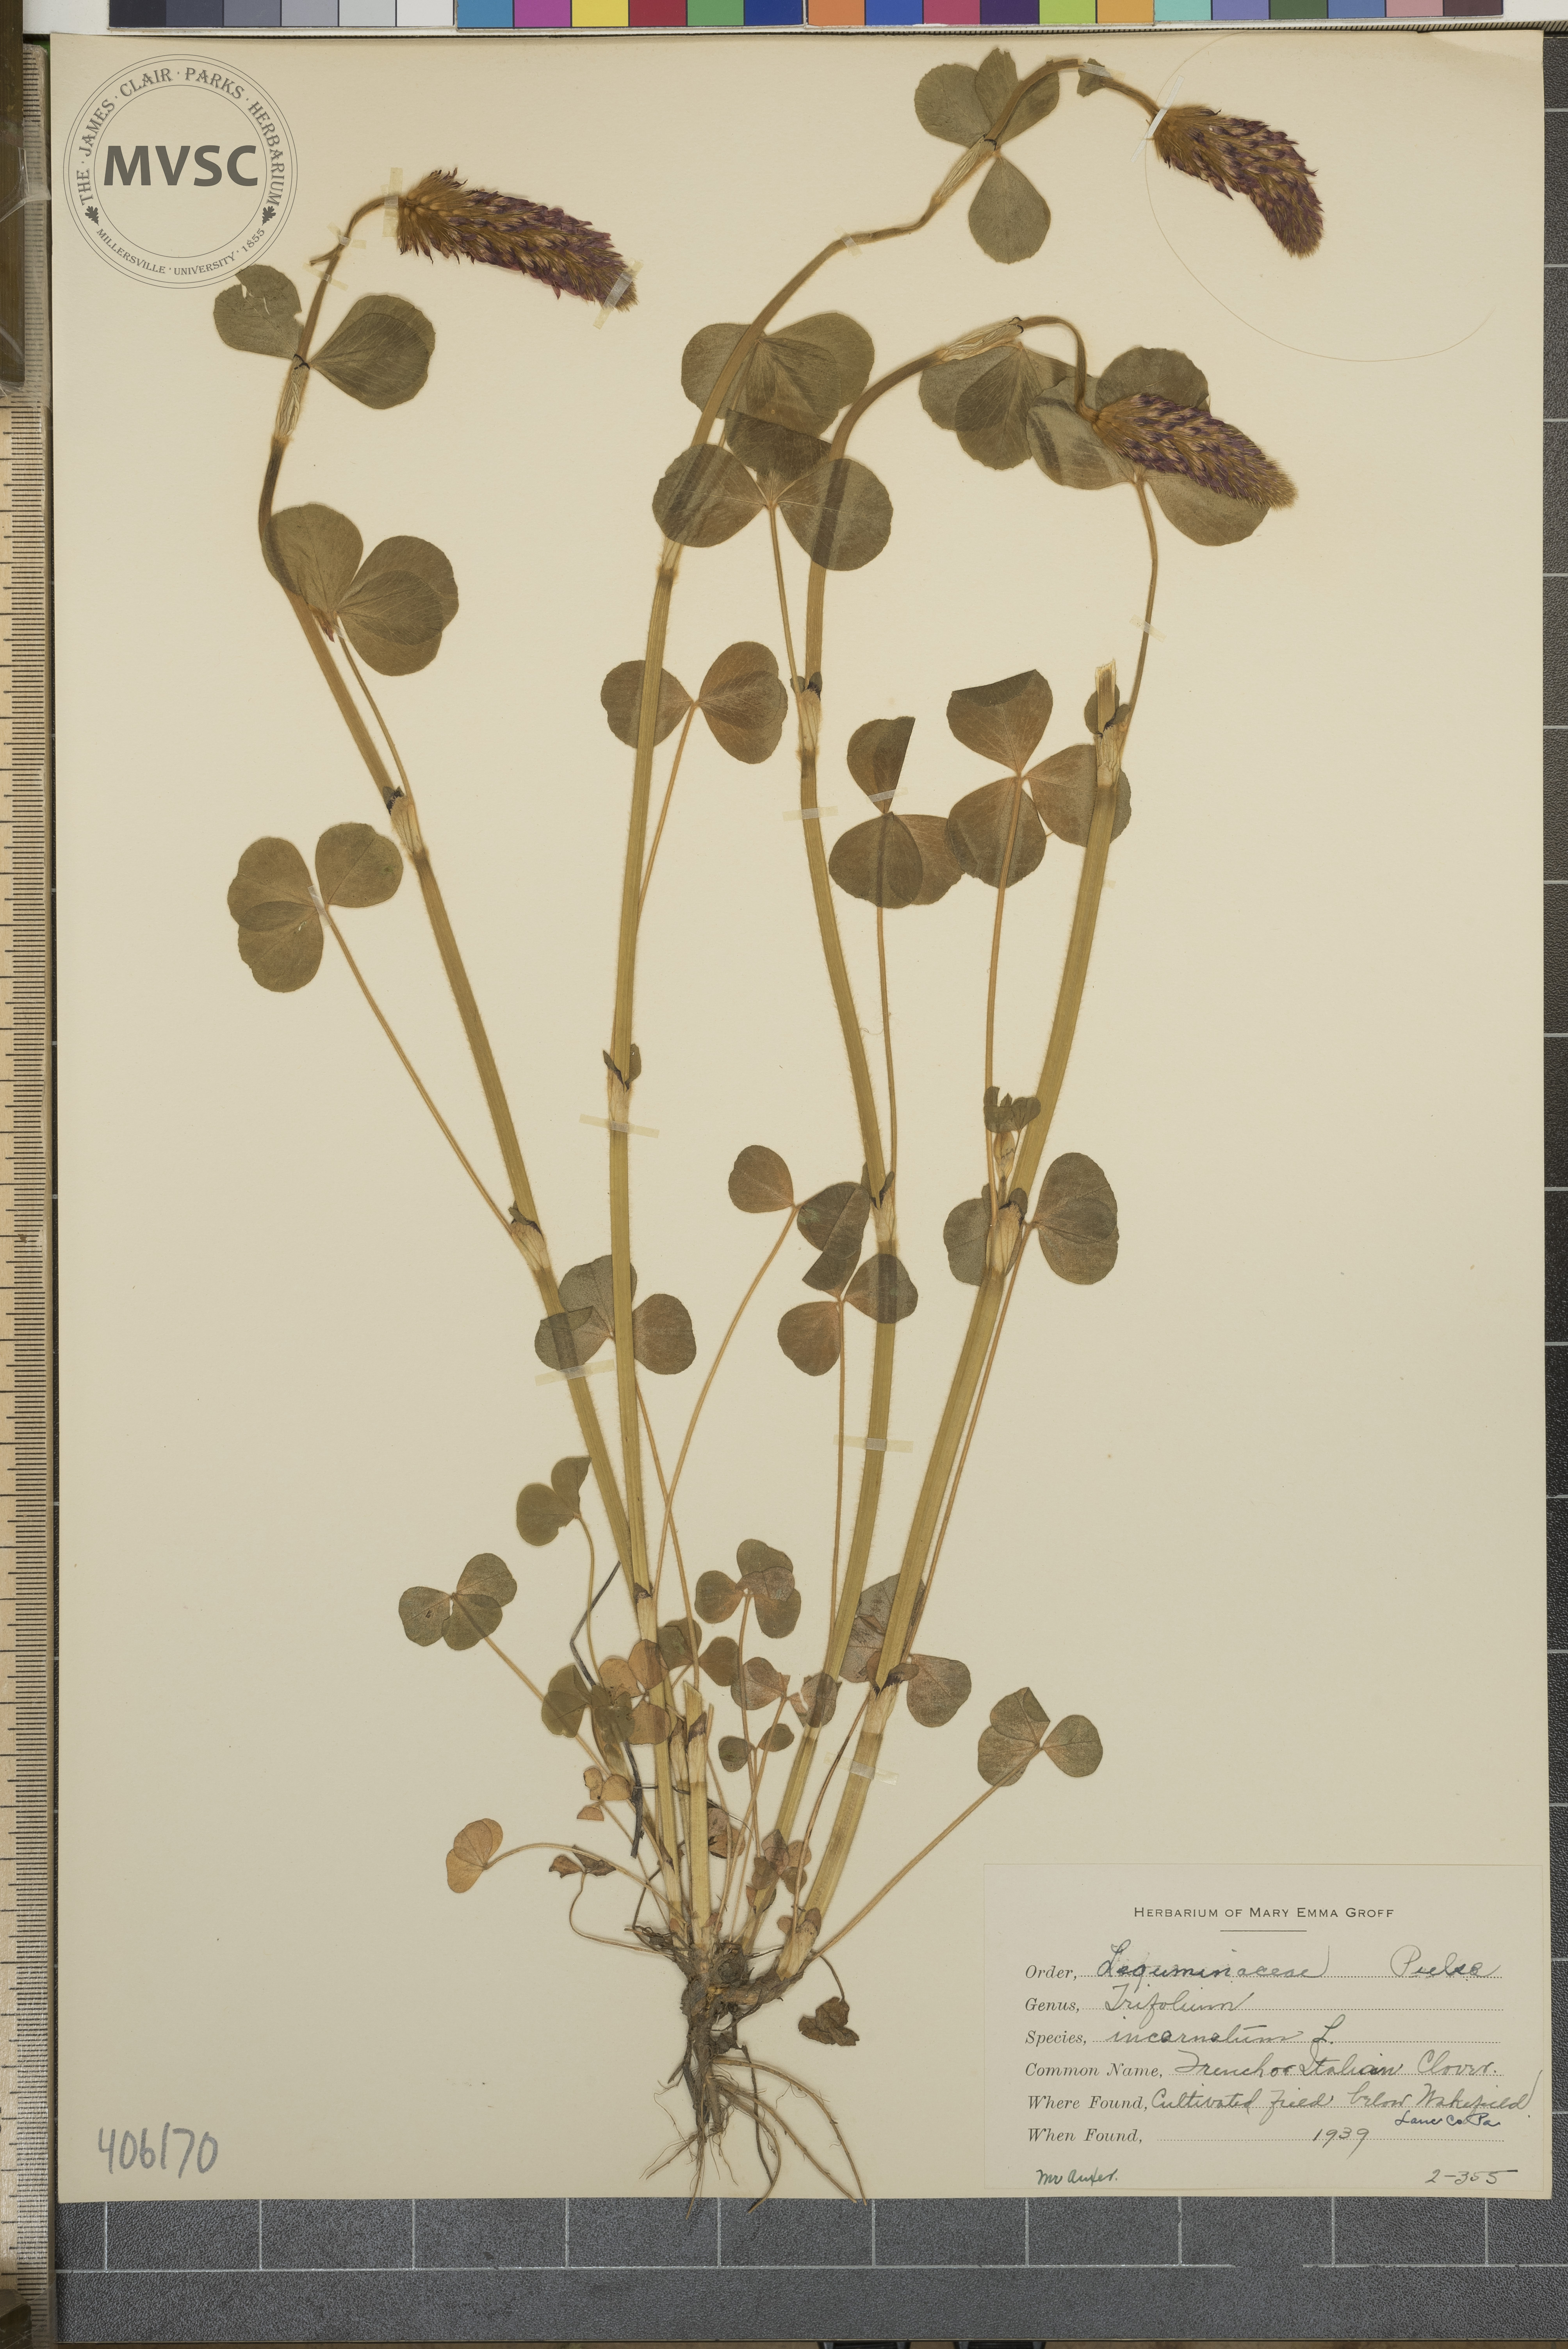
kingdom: Plantae
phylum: Tracheophyta
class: Magnoliopsida
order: Fabales
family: Fabaceae
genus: Trifolium
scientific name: Trifolium incarnatum
